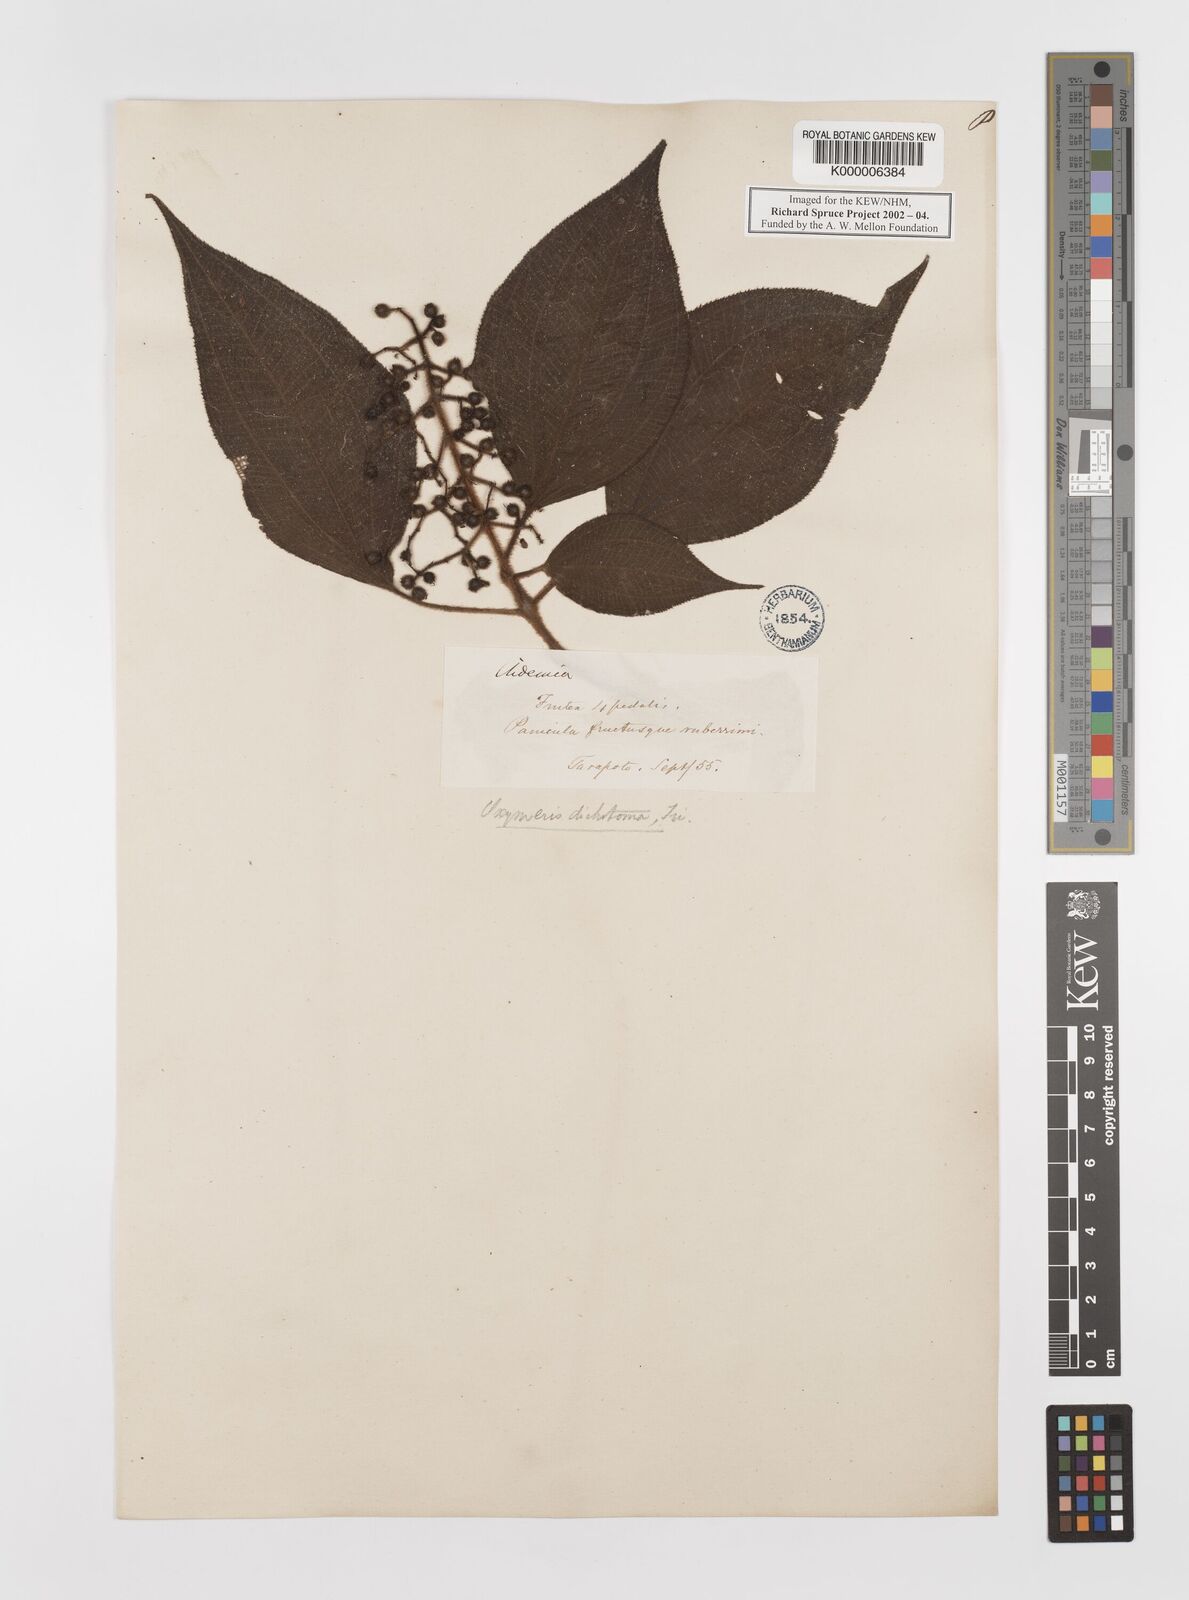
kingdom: Plantae
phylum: Tracheophyta
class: Magnoliopsida
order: Myrtales
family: Melastomataceae
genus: Miconia
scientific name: Miconia sulcicaulis
